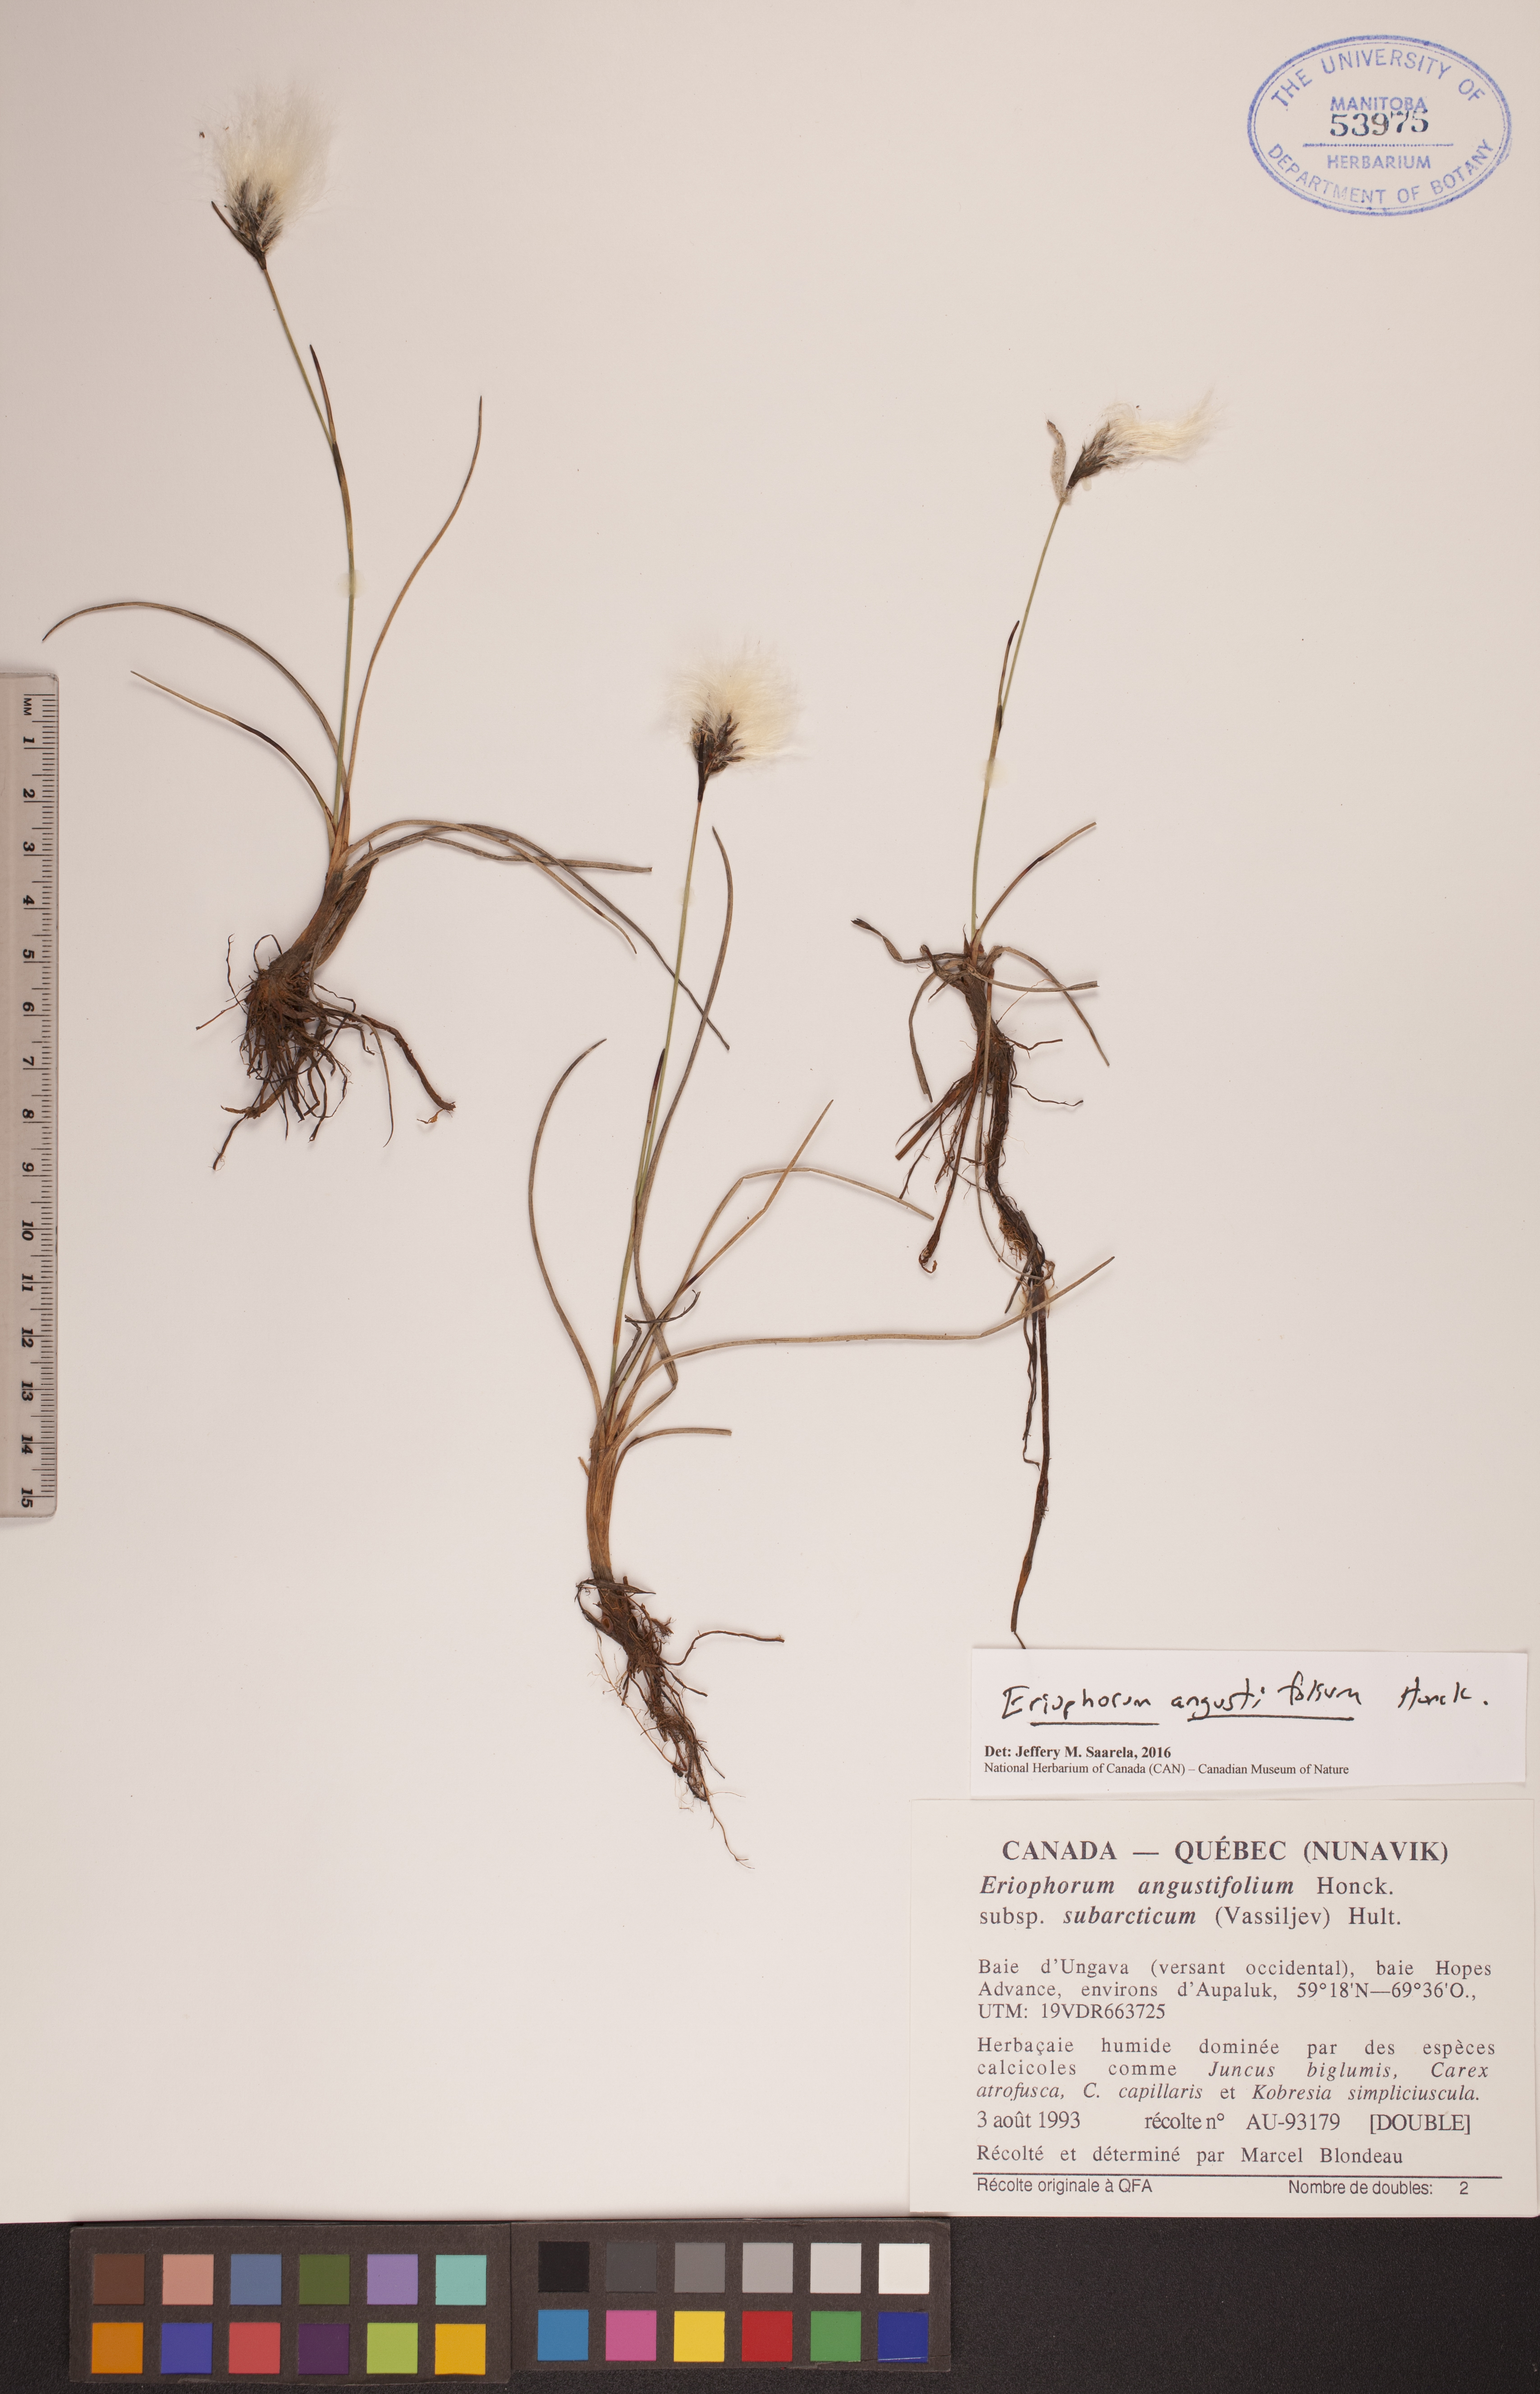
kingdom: Plantae
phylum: Tracheophyta
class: Liliopsida
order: Poales
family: Cyperaceae
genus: Eriophorum
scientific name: Eriophorum angustifolium
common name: Common cottongrass
